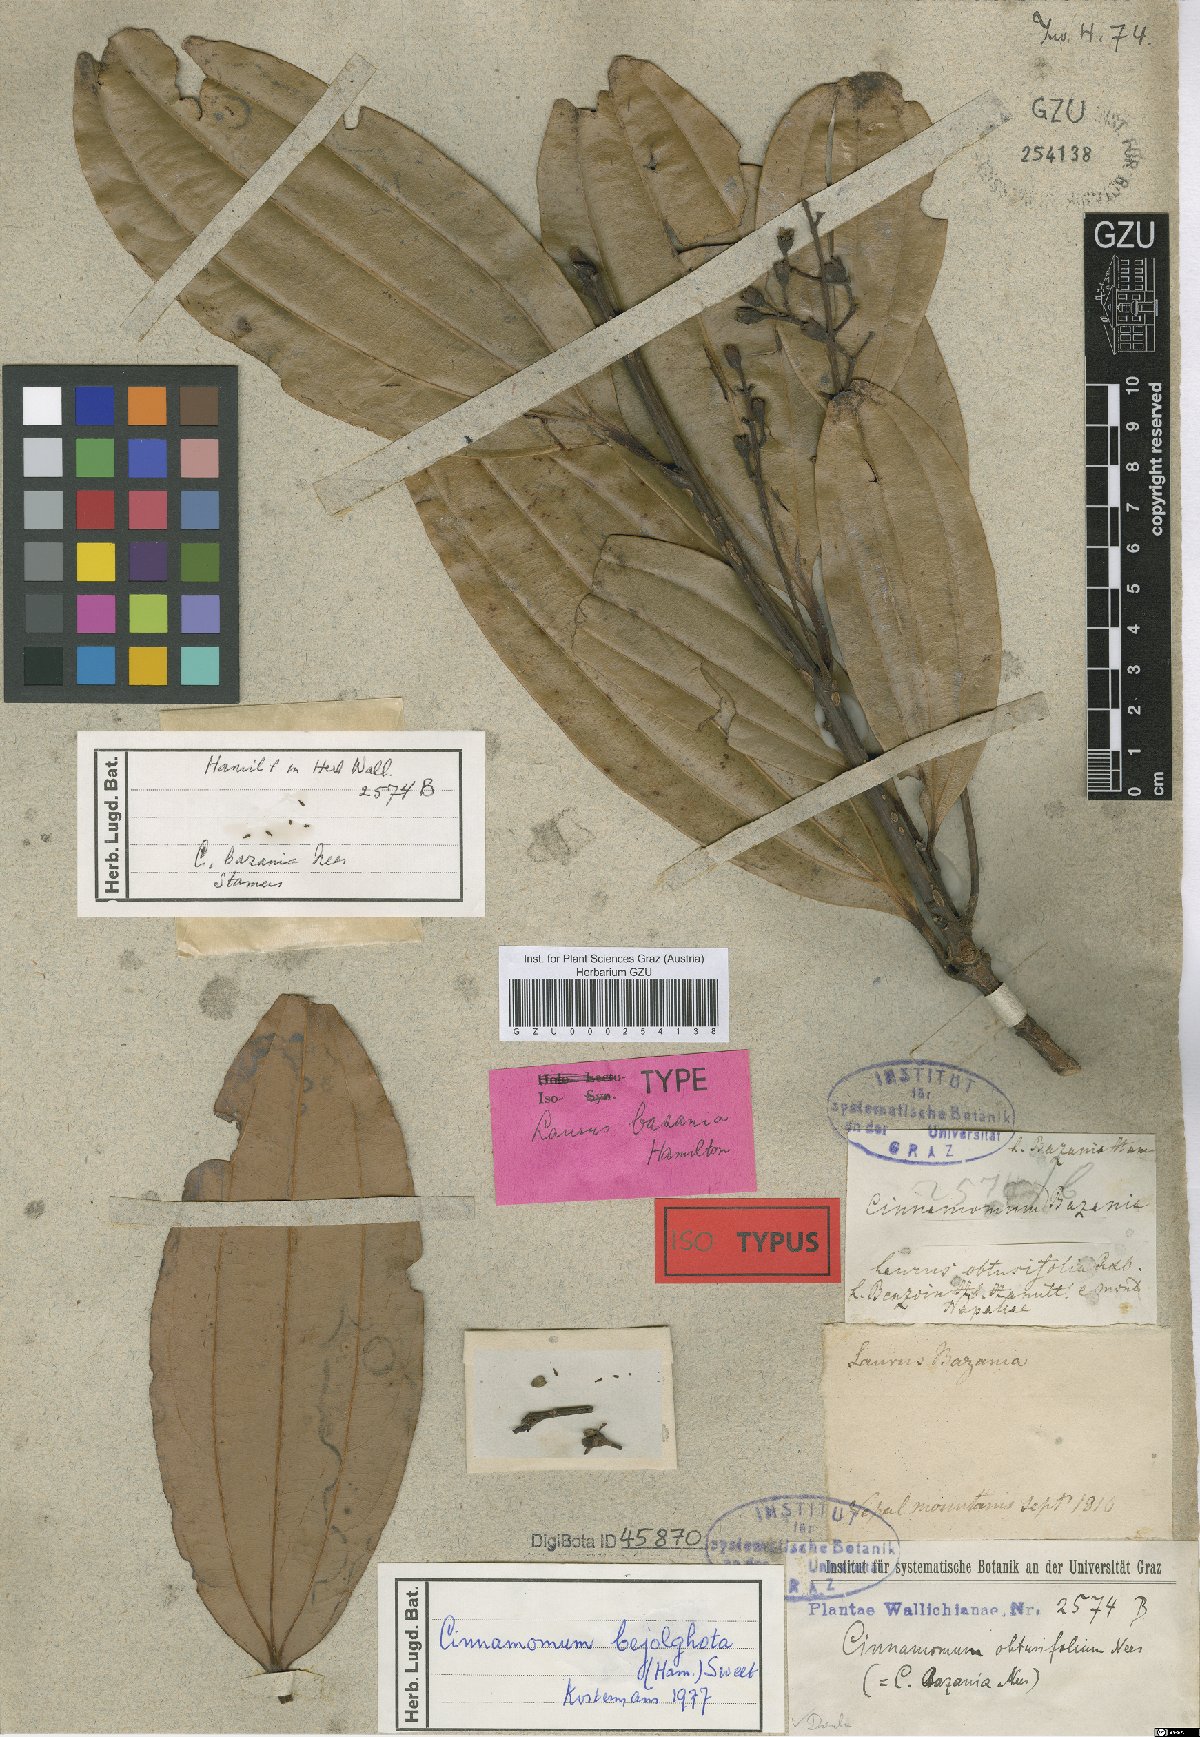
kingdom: Plantae
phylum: Tracheophyta
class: Magnoliopsida
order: Laurales
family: Lauraceae
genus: Cinnamomum
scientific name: Cinnamomum bejolghota
